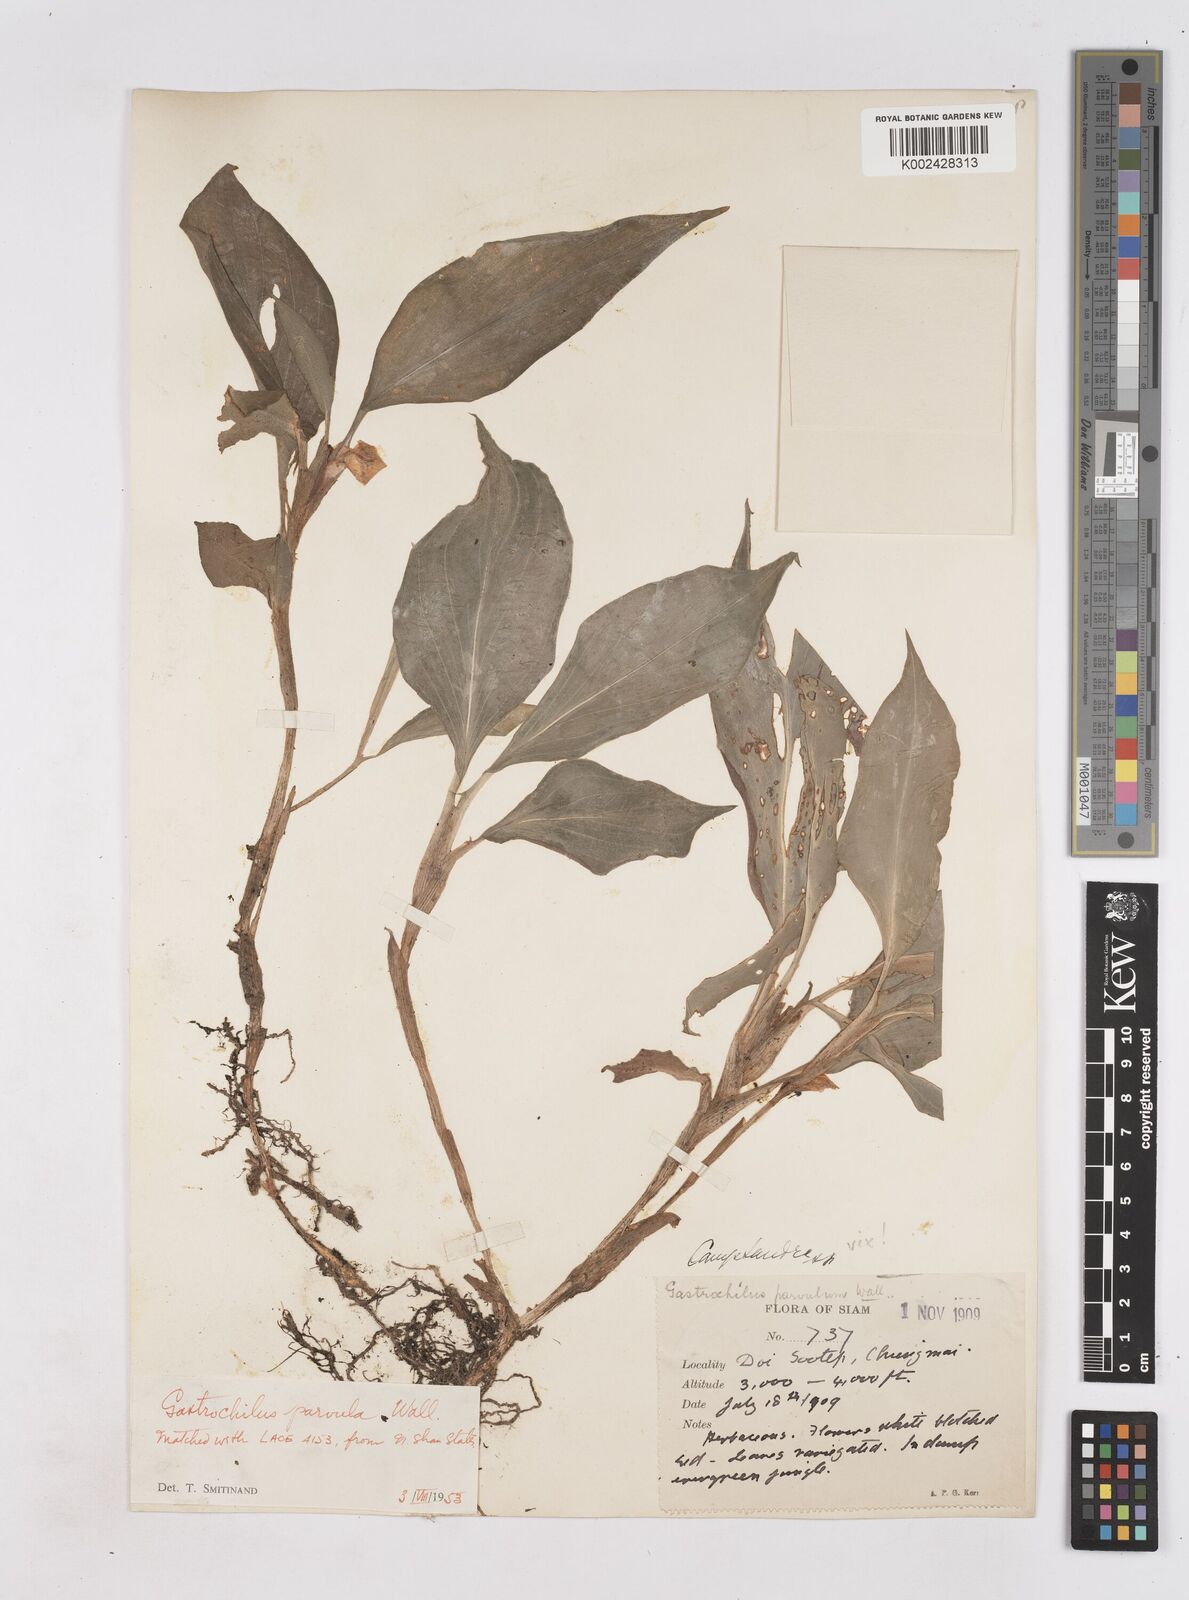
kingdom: Plantae
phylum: Tracheophyta
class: Liliopsida
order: Zingiberales
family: Zingiberaceae
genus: Boesenbergia
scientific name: Boesenbergia parvula
